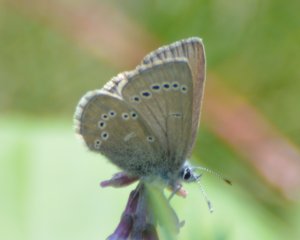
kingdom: Animalia
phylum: Arthropoda
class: Insecta
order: Lepidoptera
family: Lycaenidae
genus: Glaucopsyche
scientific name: Glaucopsyche lygdamus
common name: Silvery Blue
